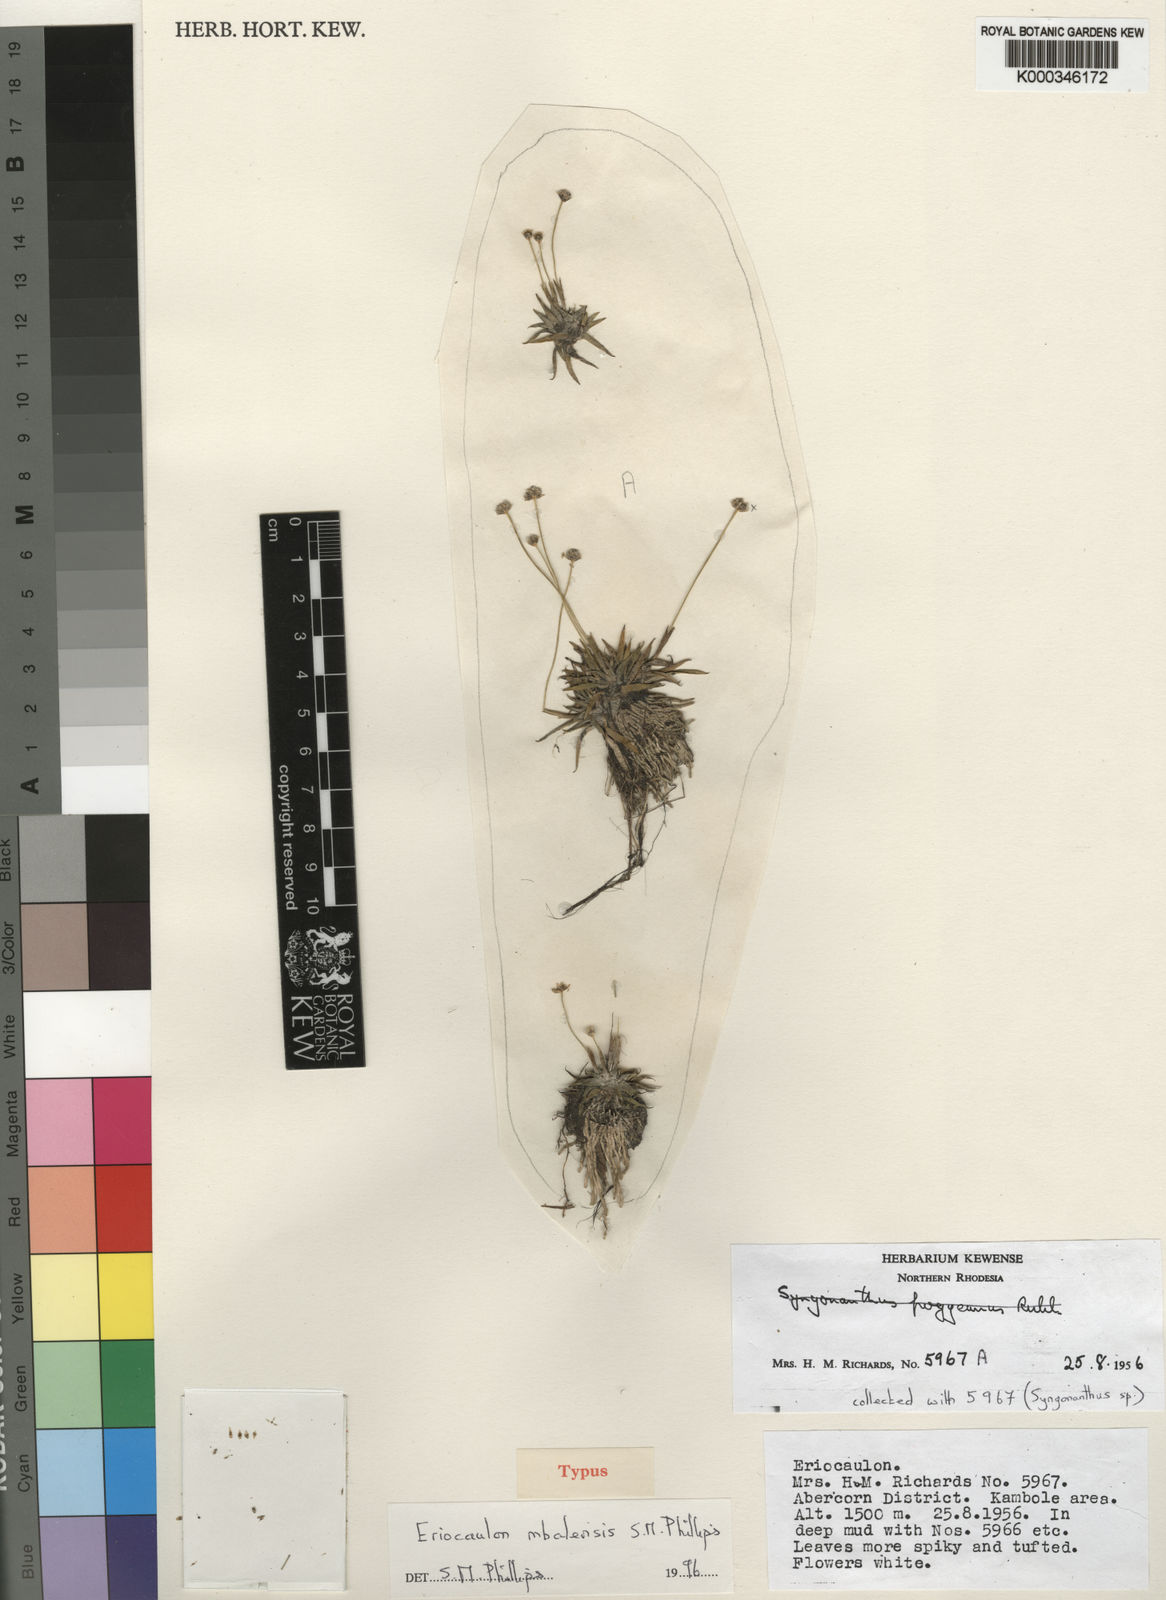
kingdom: Plantae
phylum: Tracheophyta
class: Liliopsida
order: Poales
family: Eriocaulaceae
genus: Eriocaulon
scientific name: Eriocaulon mbalensis
